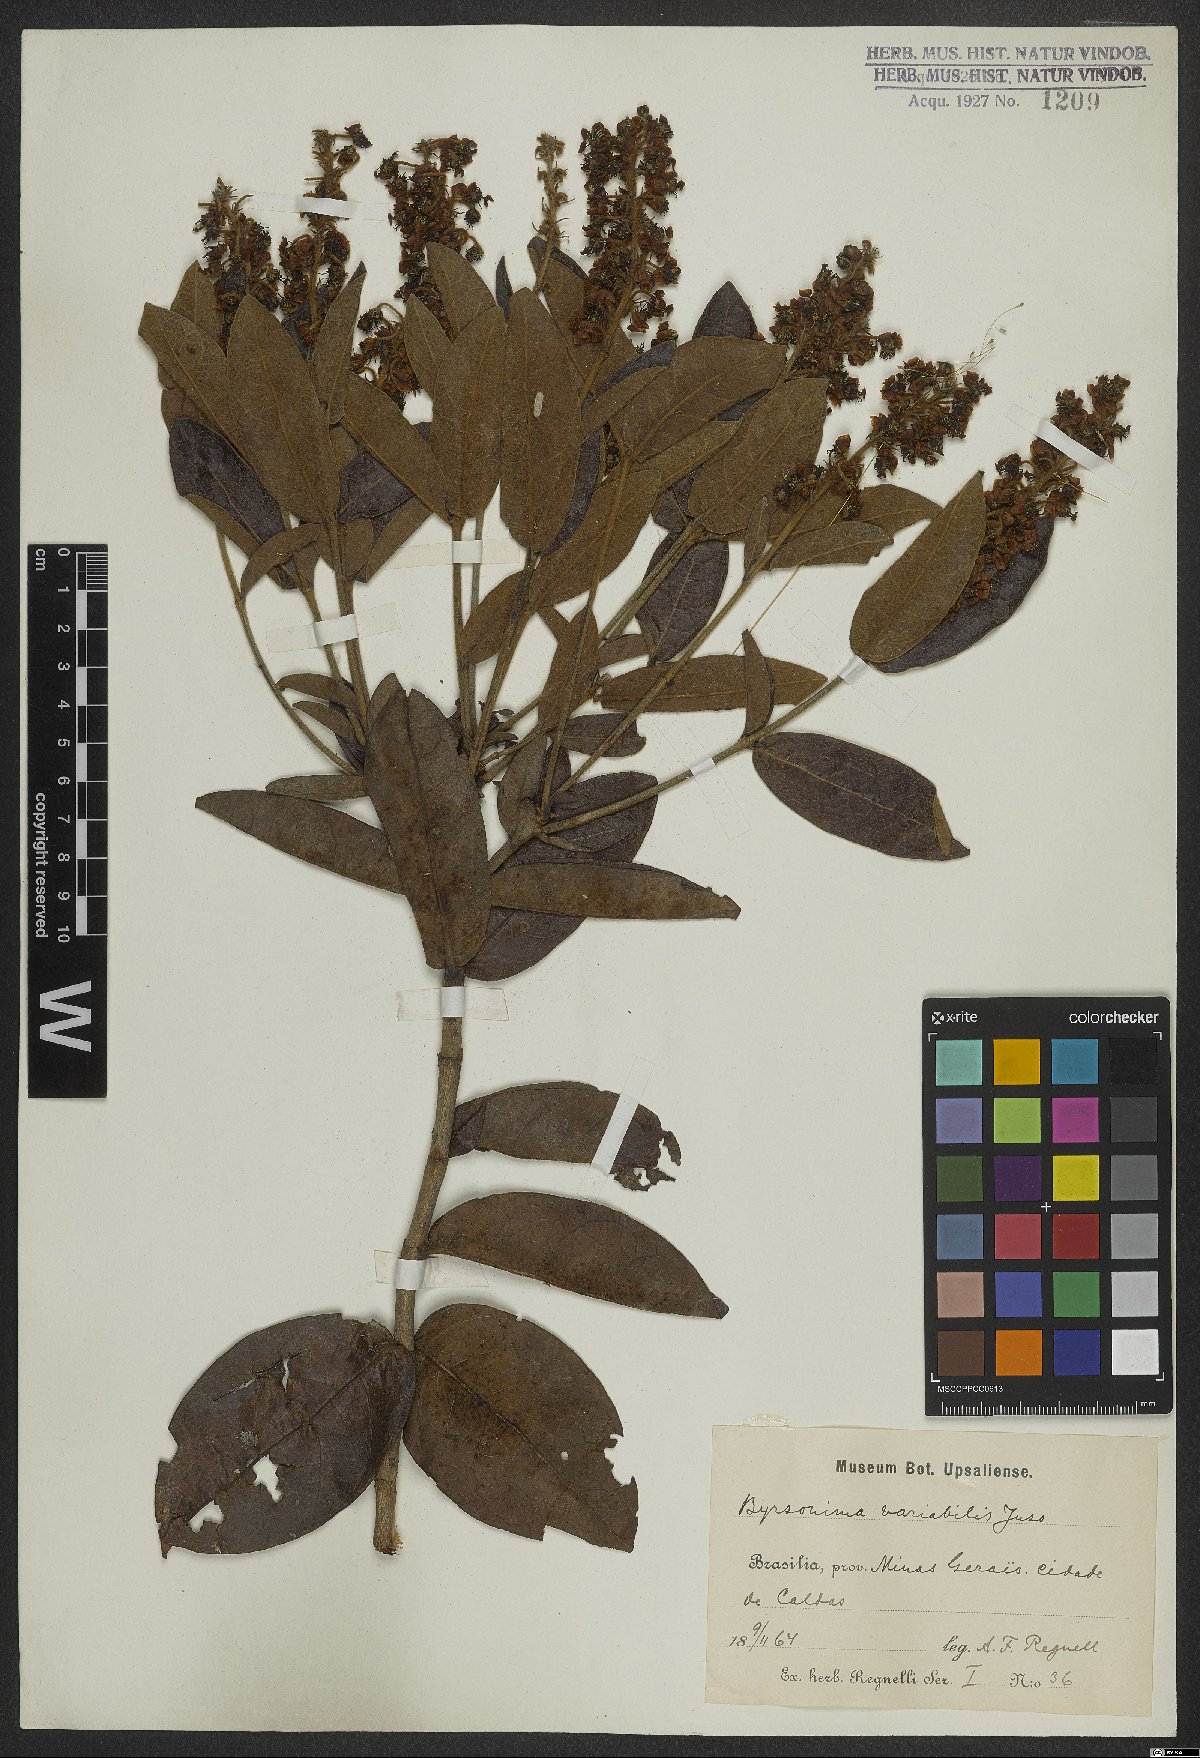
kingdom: Plantae
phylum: Tracheophyta
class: Magnoliopsida
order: Malpighiales
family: Malpighiaceae
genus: Byrsonima
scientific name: Byrsonima variabilis
